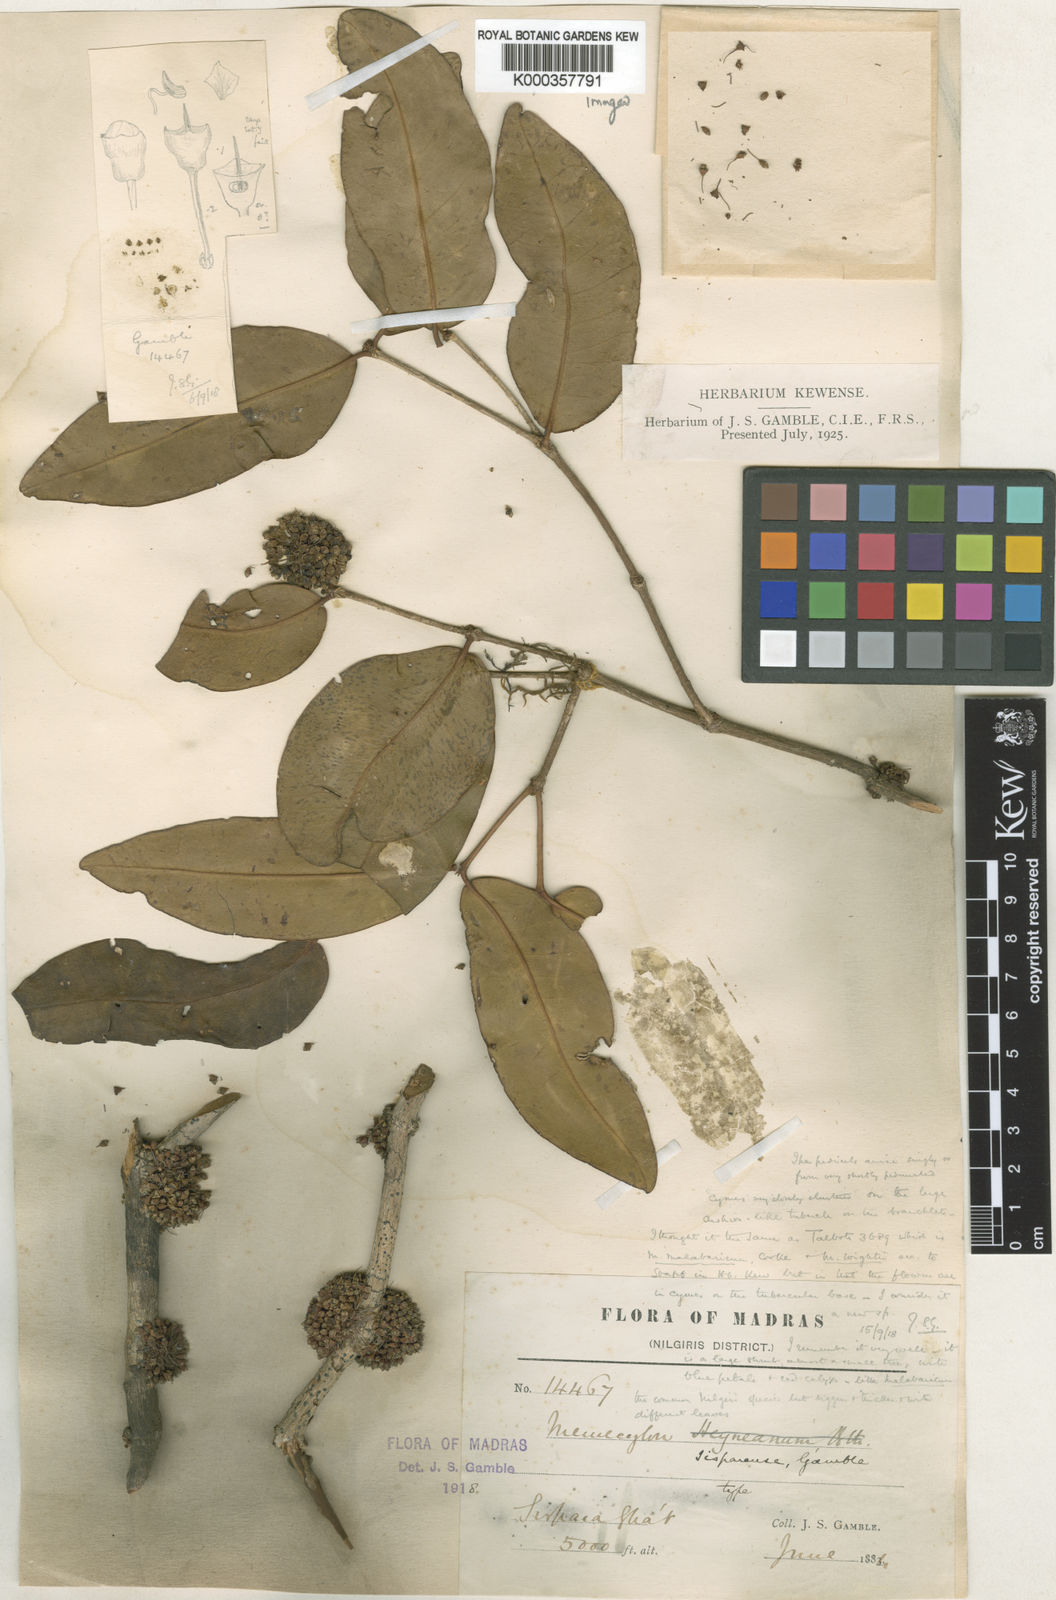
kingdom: Plantae
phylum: Tracheophyta
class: Magnoliopsida
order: Myrtales
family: Melastomataceae
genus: Memecylon
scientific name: Memecylon sisparense
